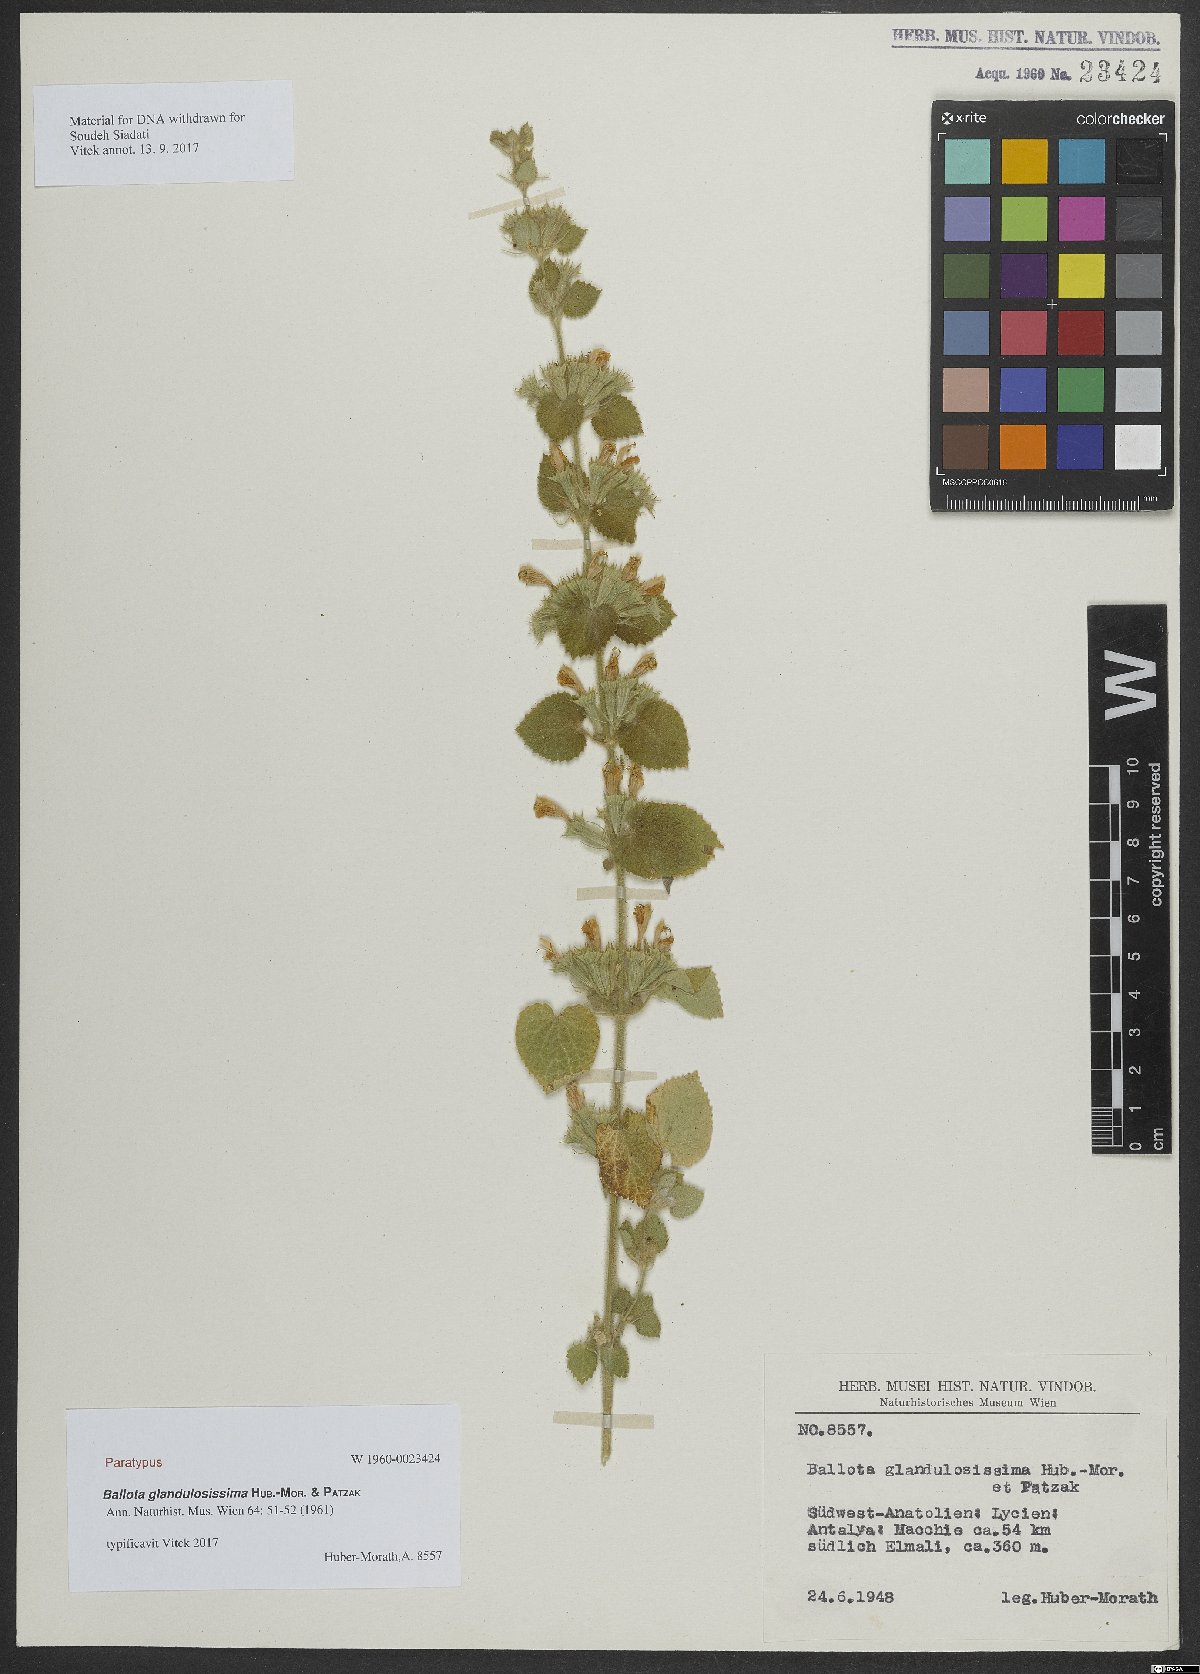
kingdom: Plantae
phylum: Tracheophyta
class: Magnoliopsida
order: Lamiales
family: Lamiaceae
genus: Ballota
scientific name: Ballota glandulosissima
